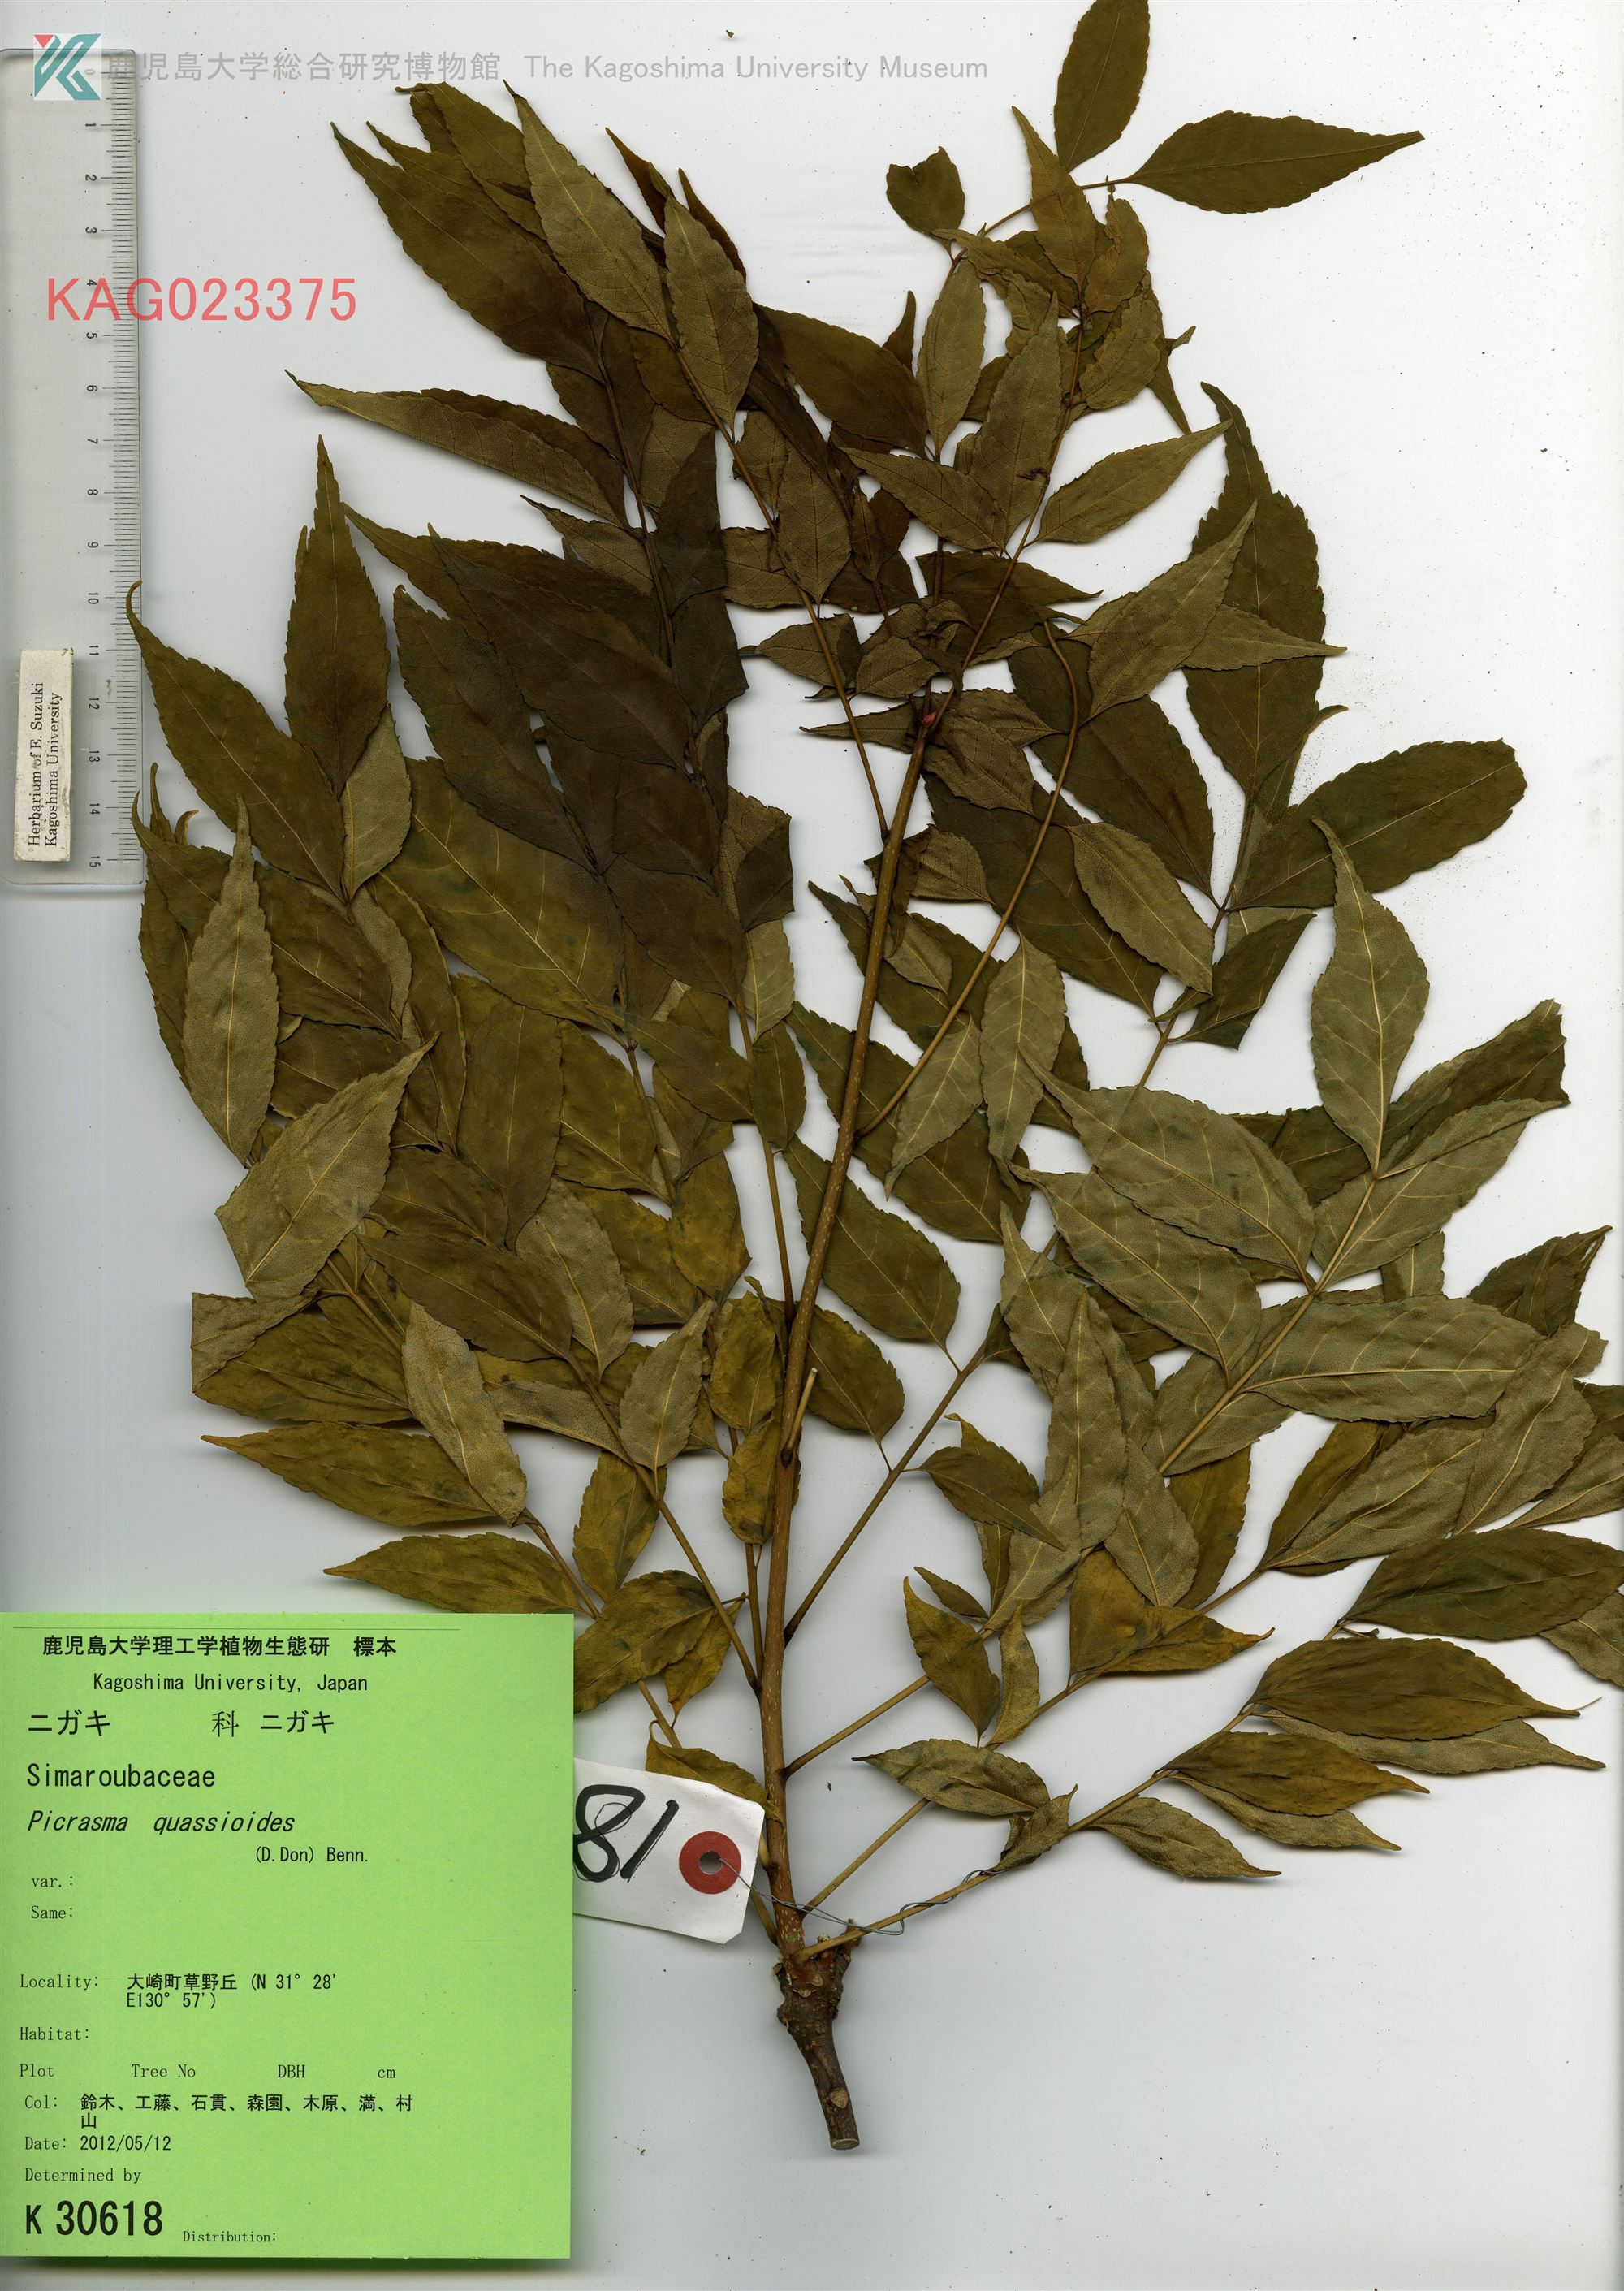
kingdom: Plantae
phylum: Tracheophyta
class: Magnoliopsida
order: Sapindales
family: Simaroubaceae
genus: Picrasma
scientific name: Picrasma quassioides
